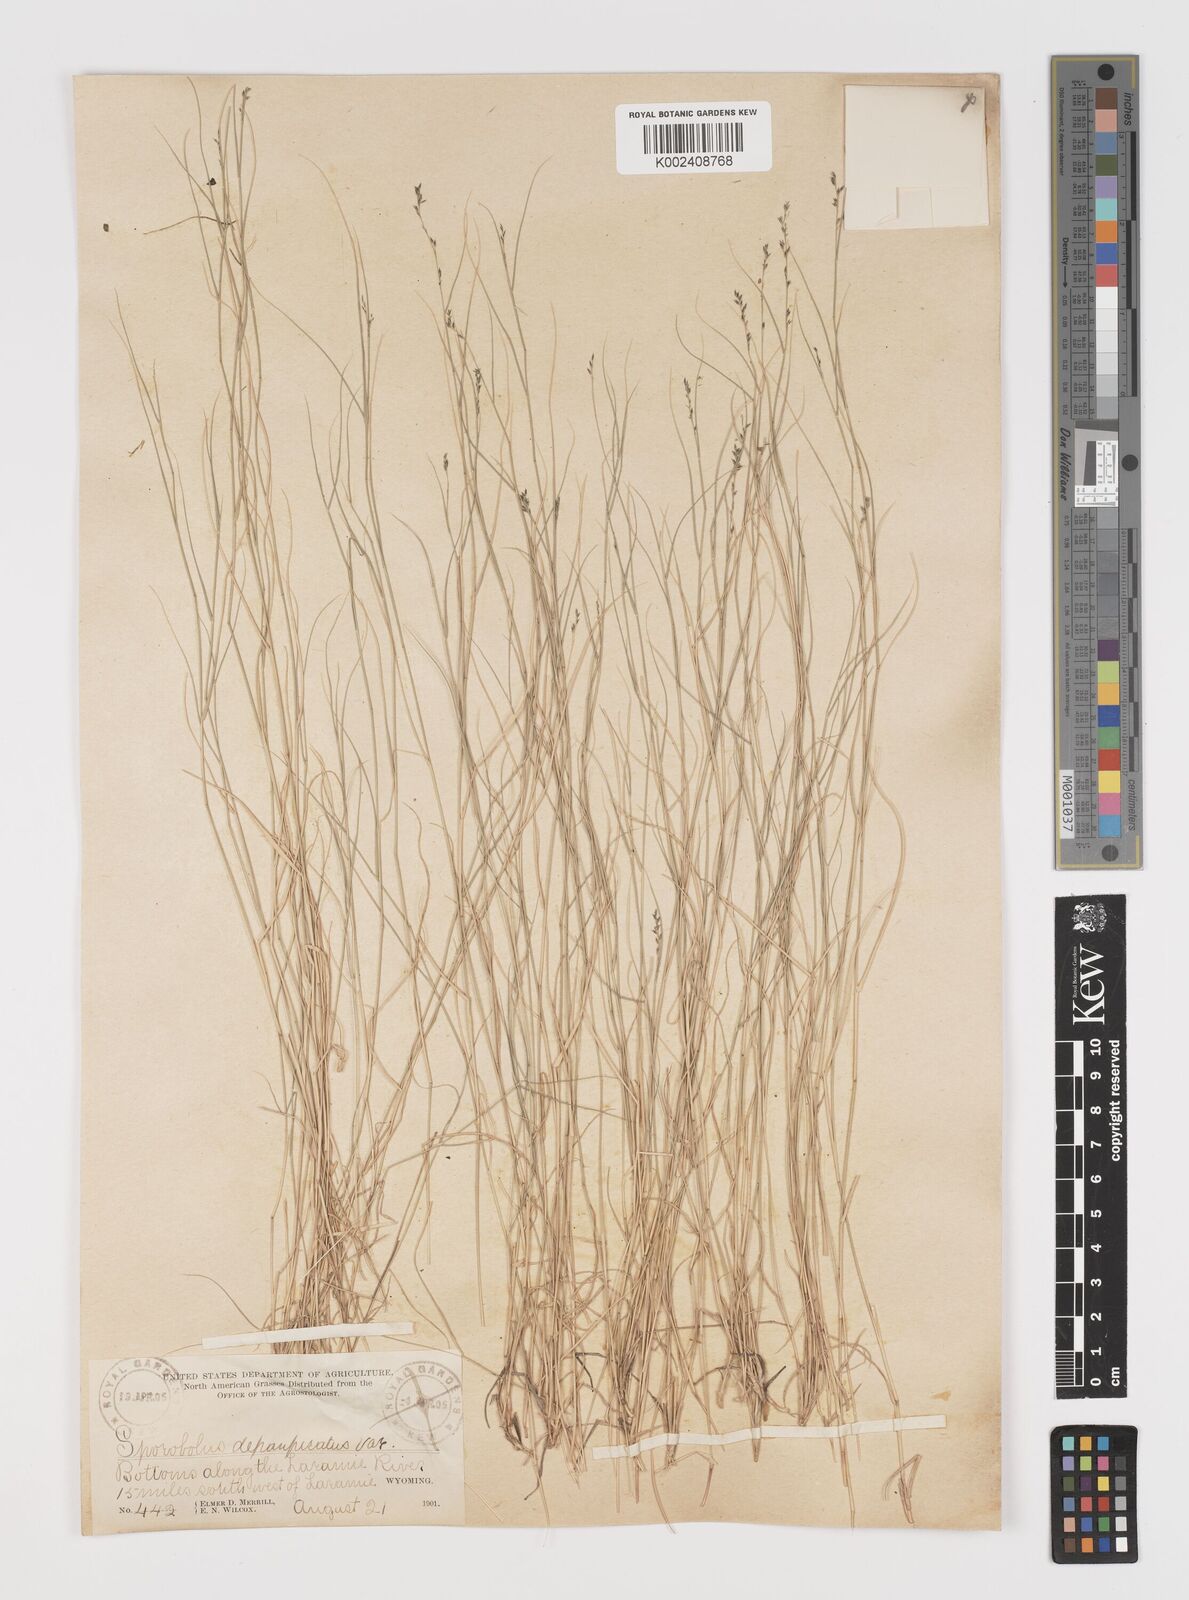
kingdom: Plantae
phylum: Tracheophyta
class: Liliopsida
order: Poales
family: Poaceae
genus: Muhlenbergia
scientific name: Muhlenbergia richardsonis
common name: Mat muhly
